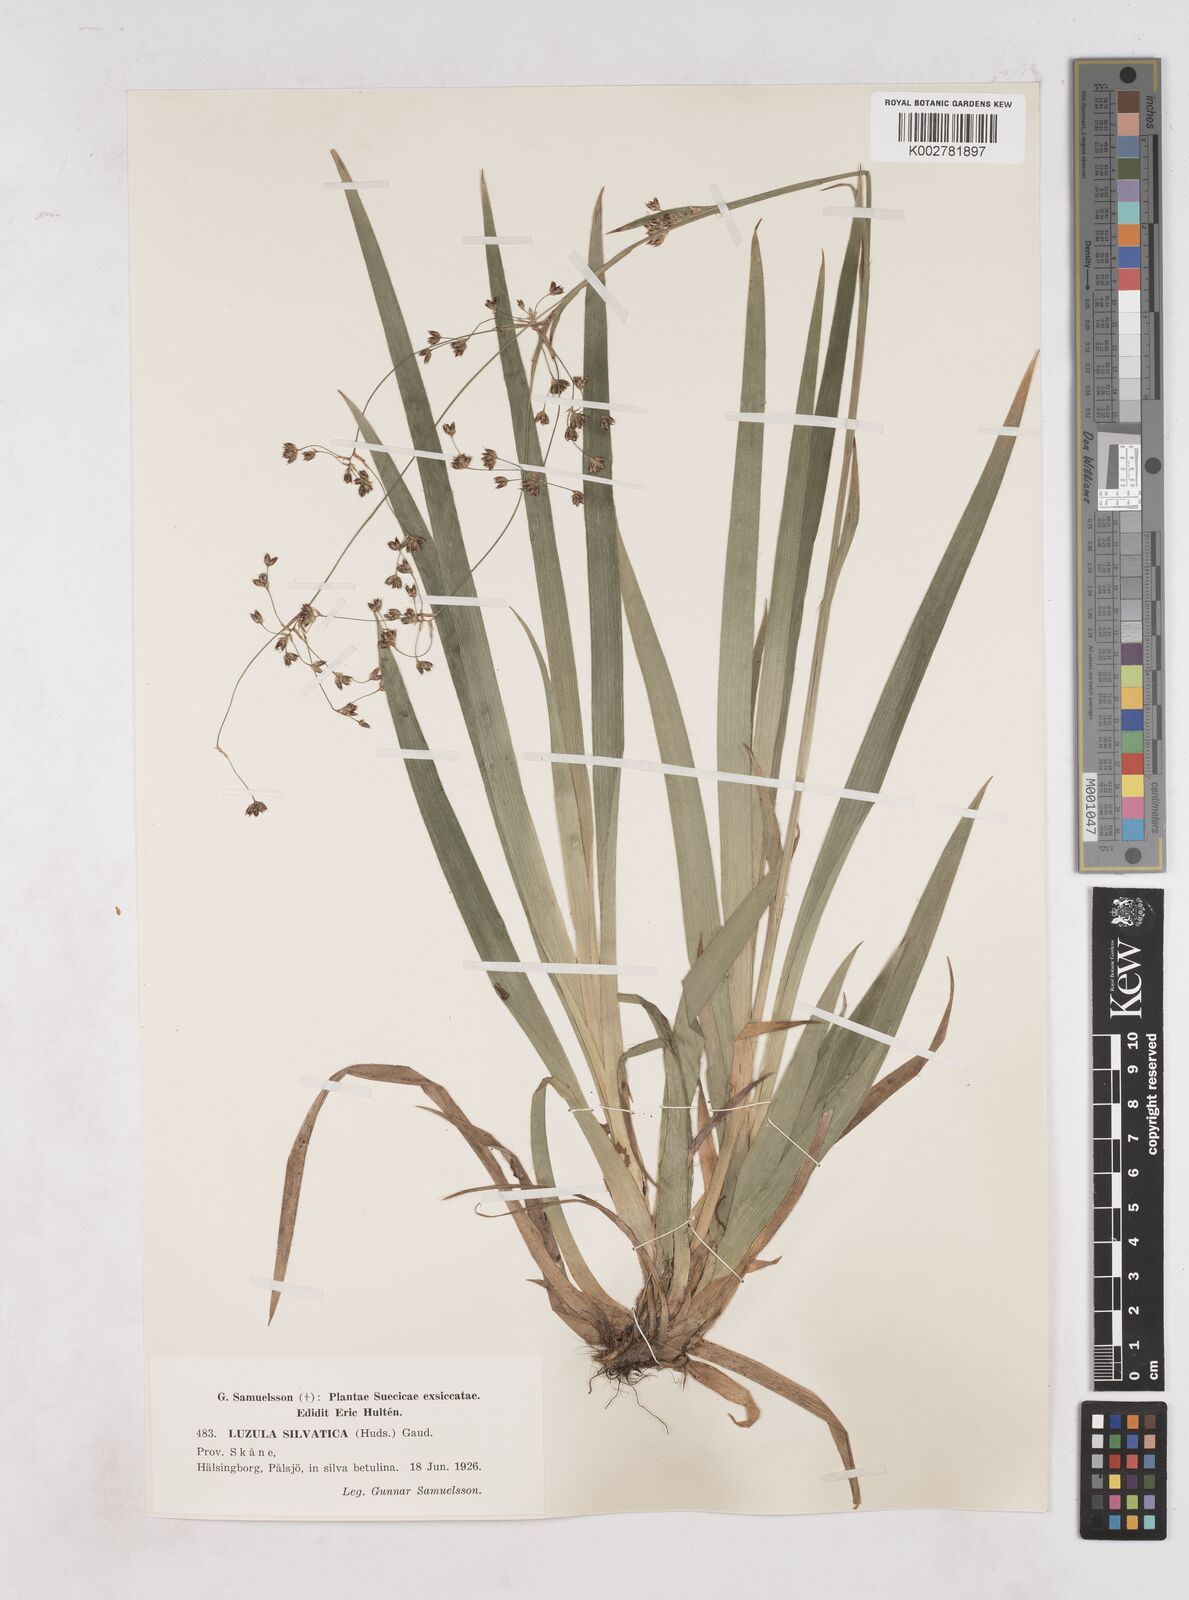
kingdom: Plantae
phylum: Tracheophyta
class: Liliopsida
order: Poales
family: Juncaceae
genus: Luzula
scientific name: Luzula sylvatica
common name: Great wood-rush
